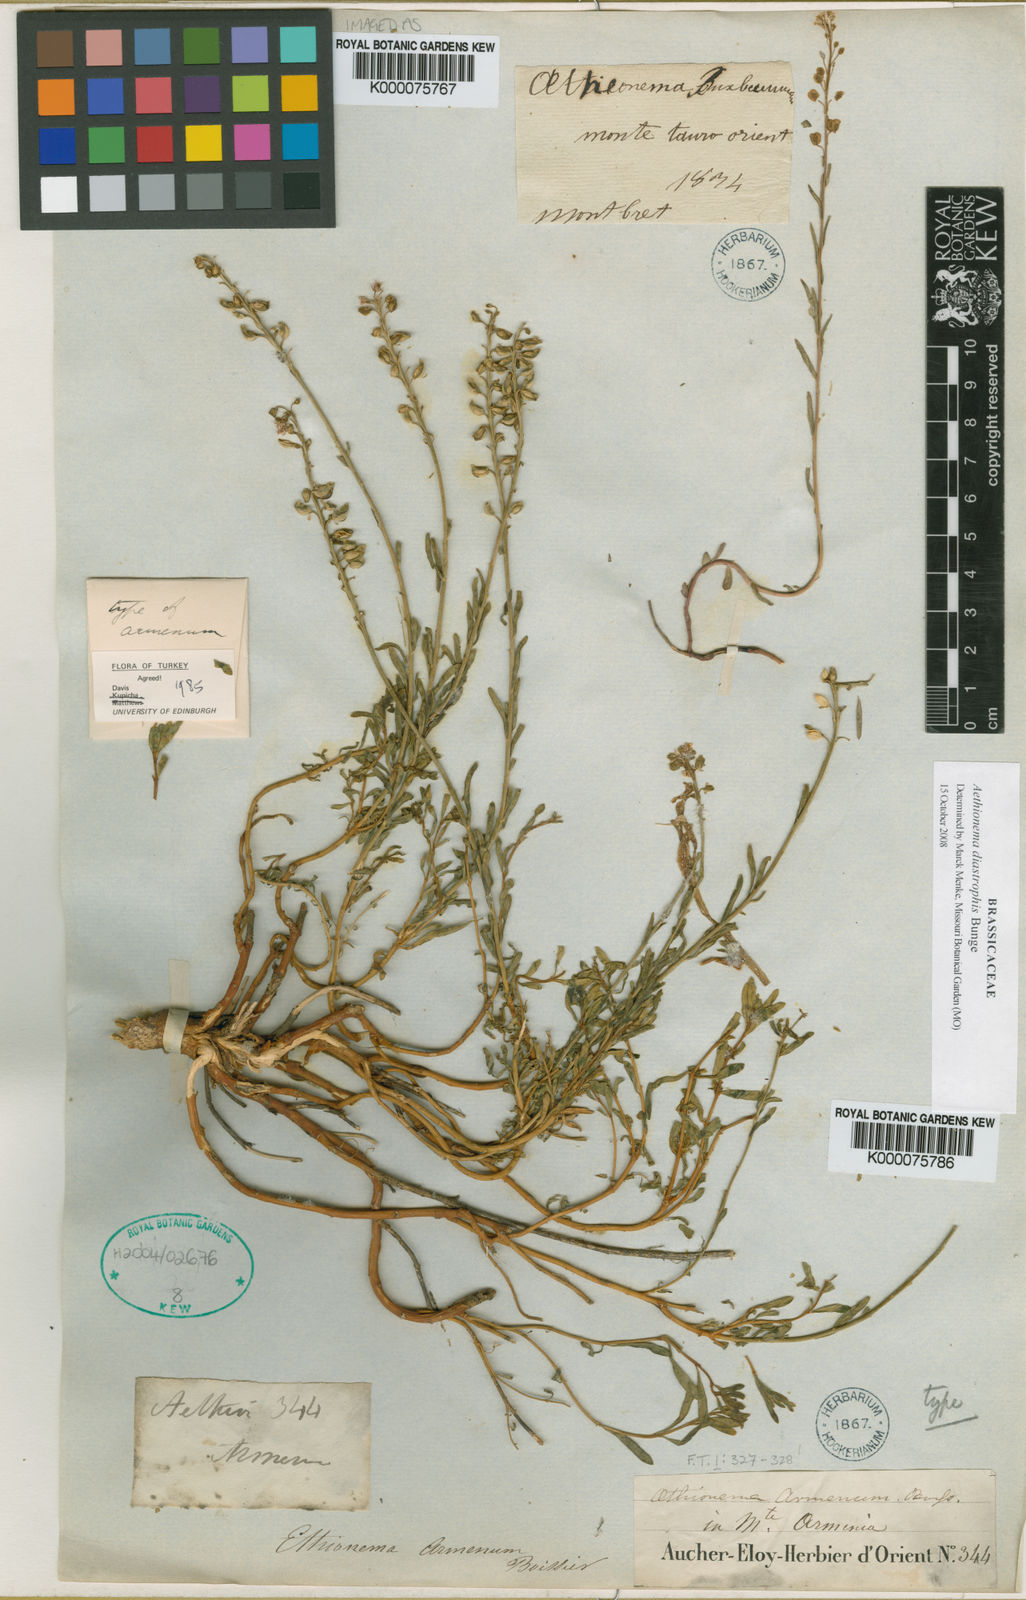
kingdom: Plantae
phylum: Tracheophyta
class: Magnoliopsida
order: Brassicales
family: Brassicaceae
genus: Aethionema
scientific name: Aethionema armenum
